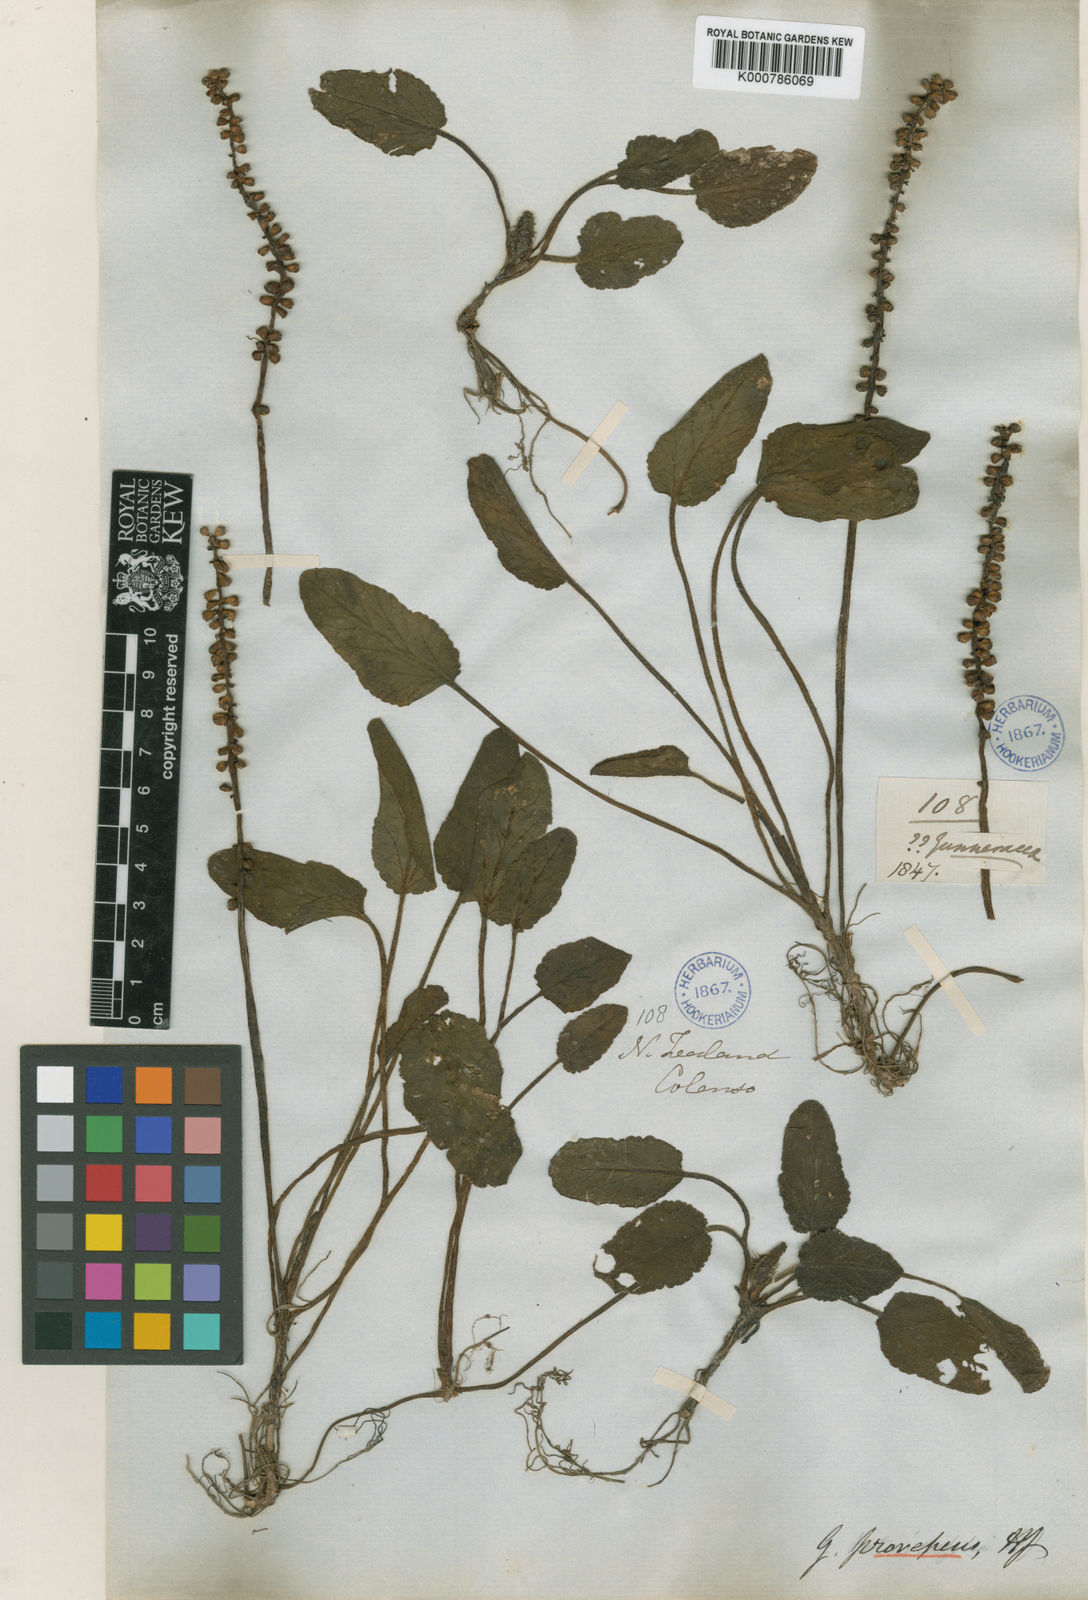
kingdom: Plantae
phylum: Tracheophyta
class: Magnoliopsida
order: Gunnerales
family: Gunneraceae
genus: Gunnera
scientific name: Gunnera prorepens
